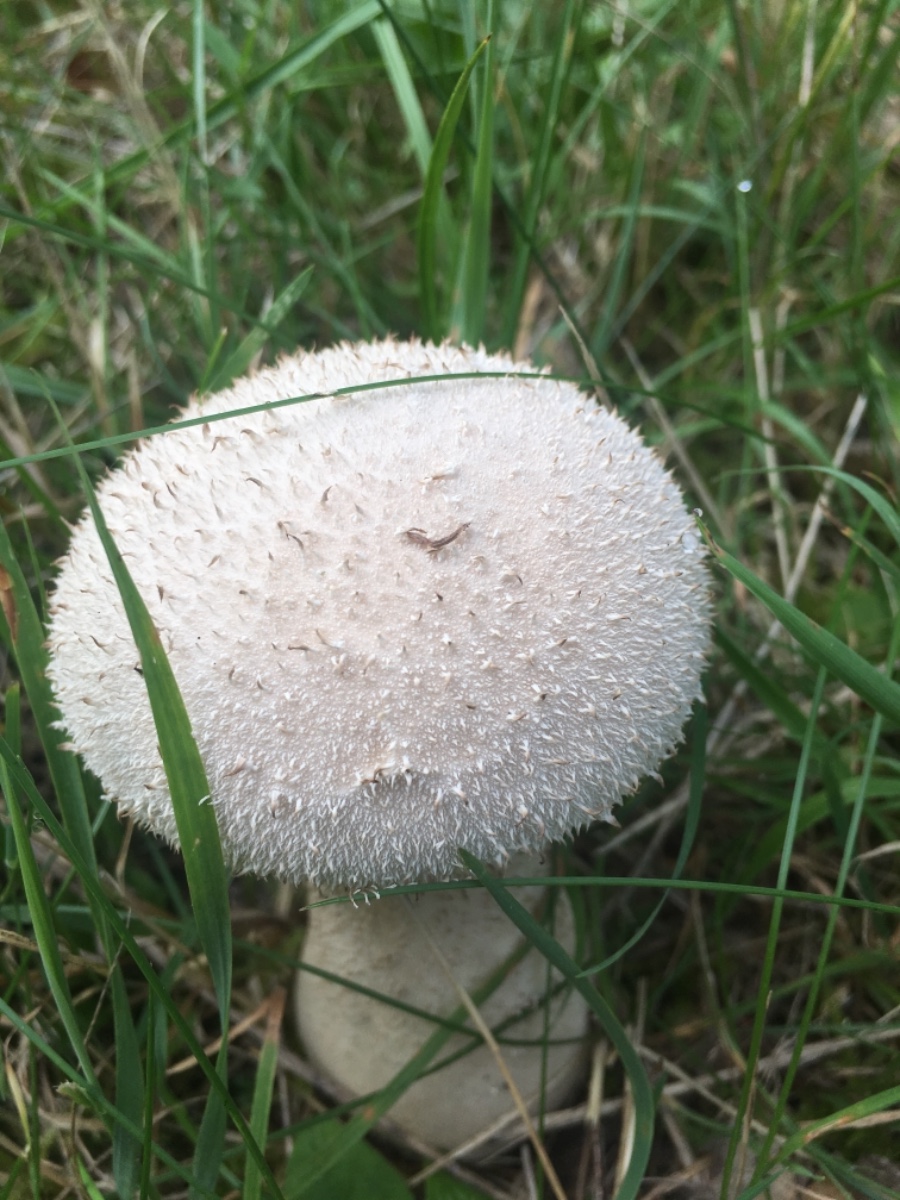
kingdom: Fungi
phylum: Basidiomycota
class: Agaricomycetes
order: Agaricales
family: Lycoperdaceae
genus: Lycoperdon
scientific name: Lycoperdon excipuliforme
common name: højstokket støvbold
